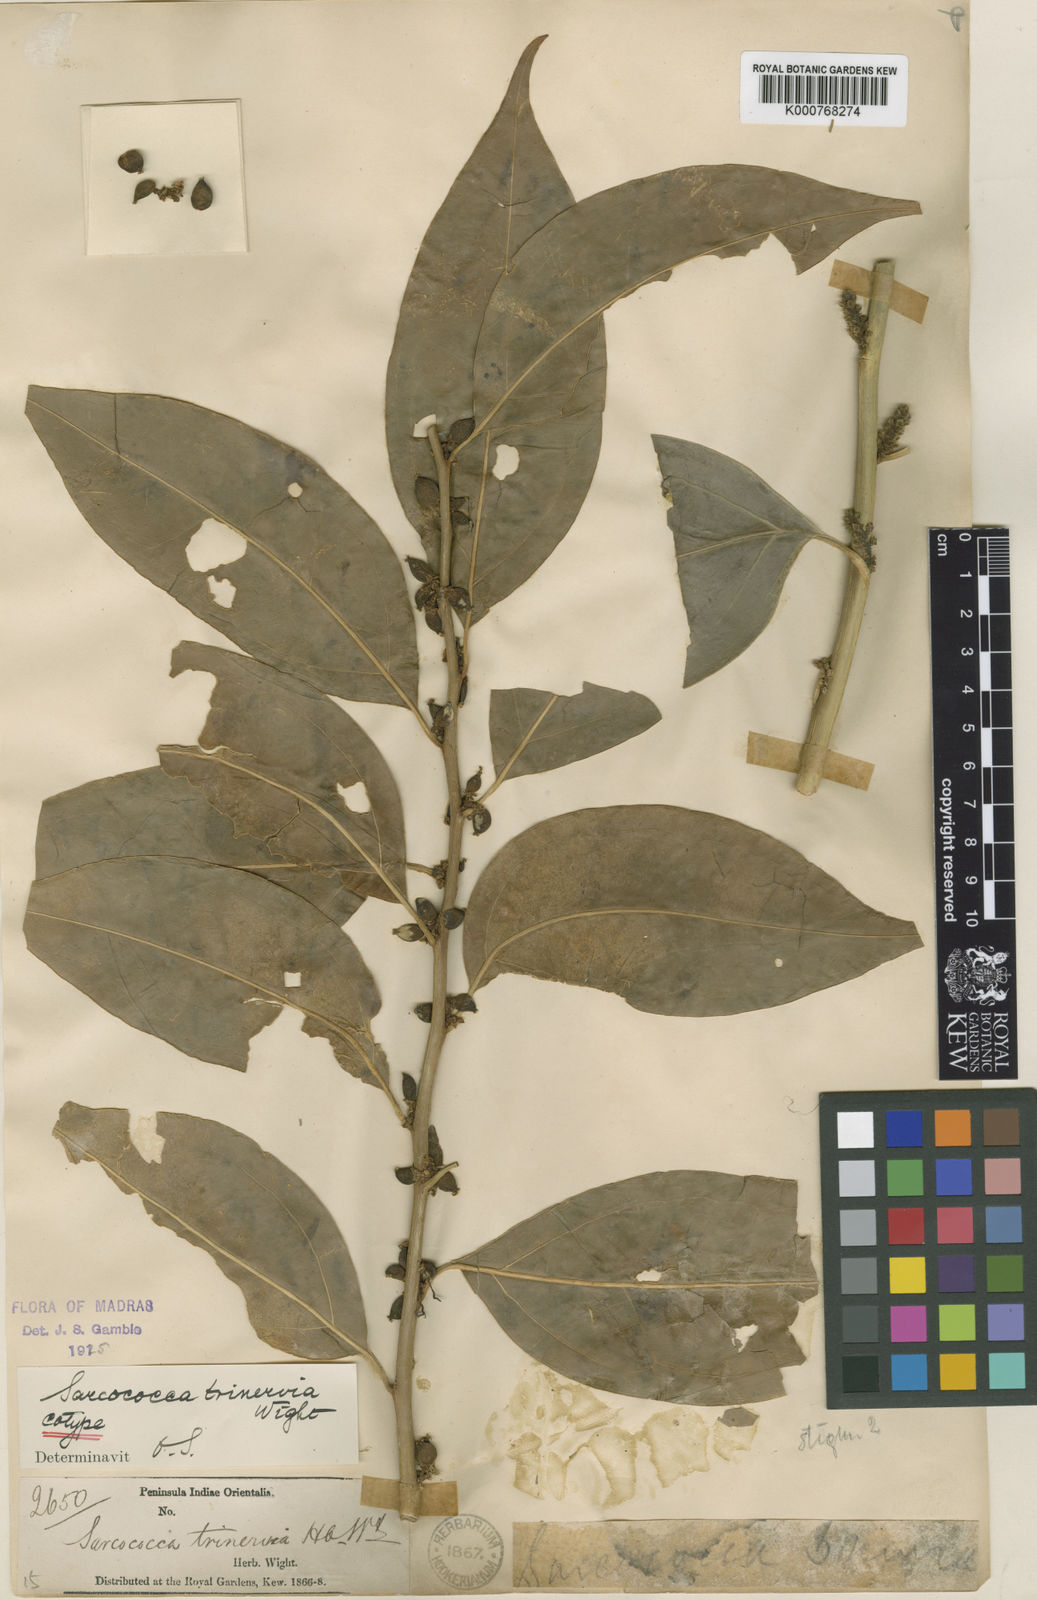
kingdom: Plantae
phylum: Tracheophyta
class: Magnoliopsida
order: Buxales
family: Buxaceae
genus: Sarcococca
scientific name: Sarcococca coriacea
